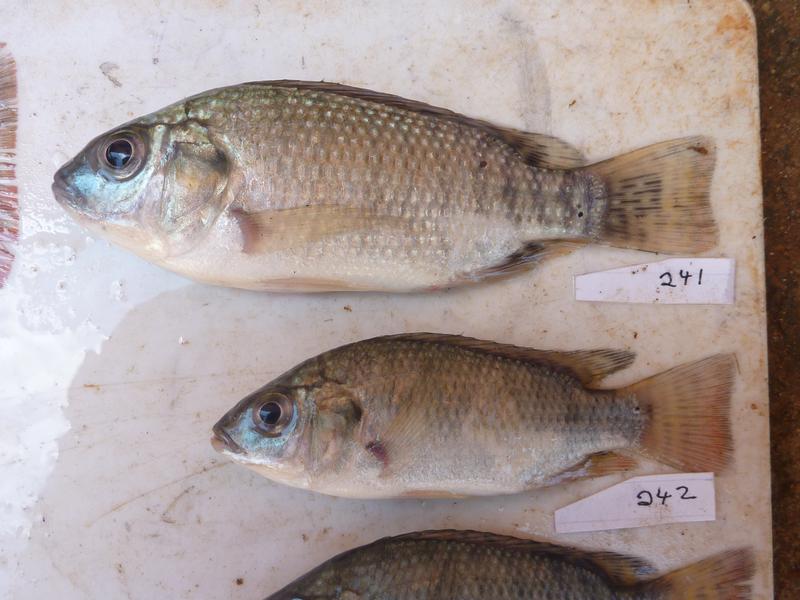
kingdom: Animalia
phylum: Chordata
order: Perciformes
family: Cichlidae
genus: Oreochromis
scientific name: Oreochromis
